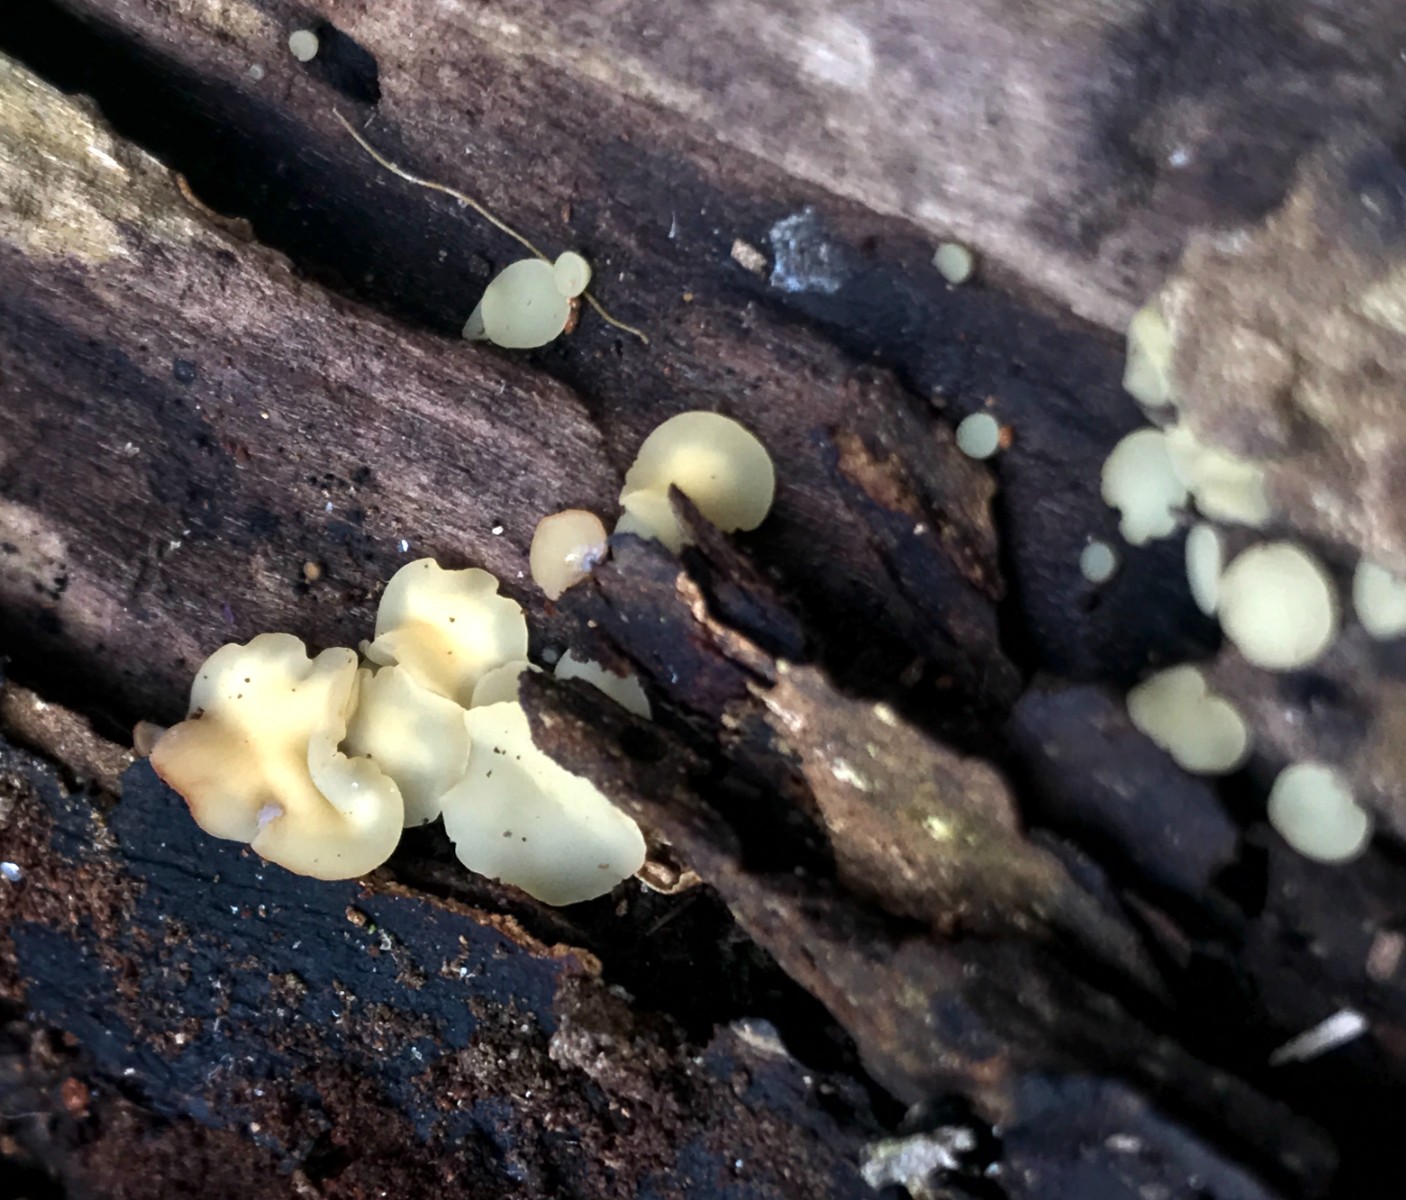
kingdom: Fungi
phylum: Ascomycota
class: Leotiomycetes
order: Helotiales
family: Helotiaceae
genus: Hymenoscyphus
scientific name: Hymenoscyphus
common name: stilkskive
